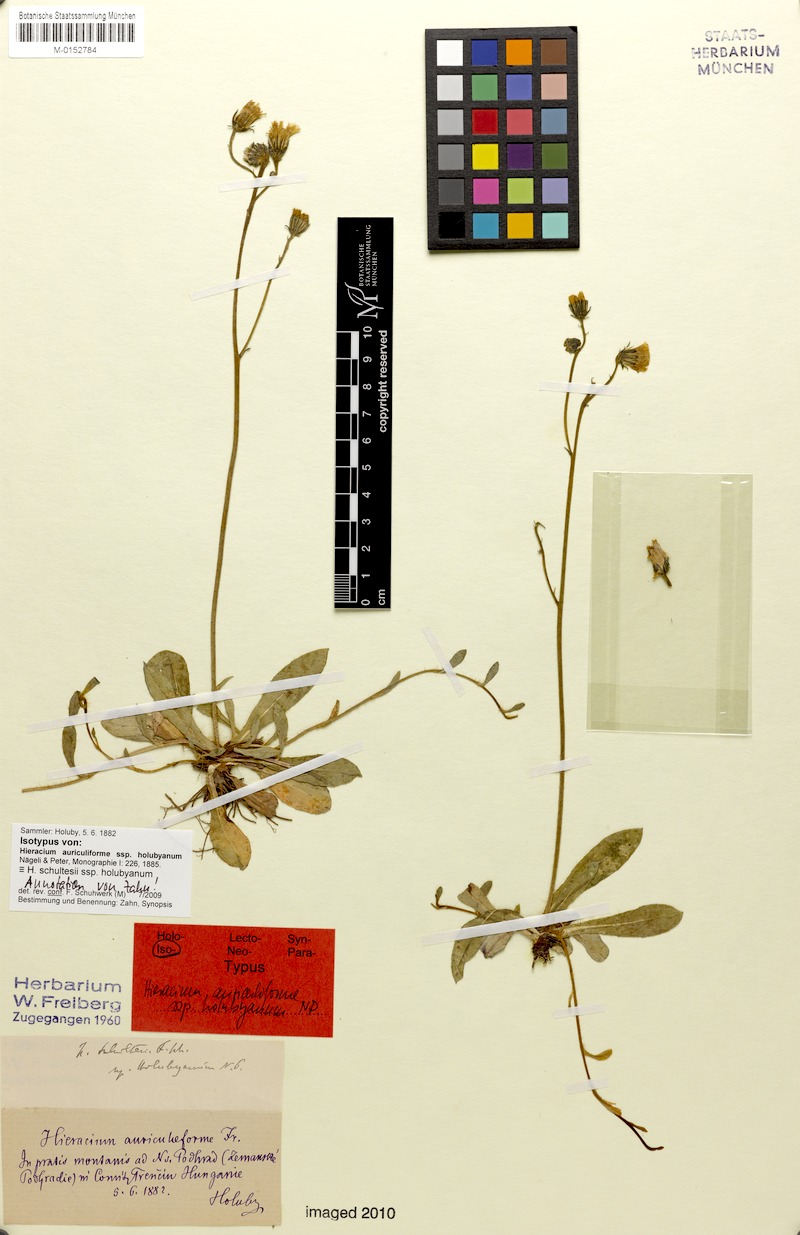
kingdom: Plantae
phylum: Tracheophyta
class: Magnoliopsida
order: Asterales
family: Asteraceae
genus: Pilosella
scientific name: Pilosella schultesii
